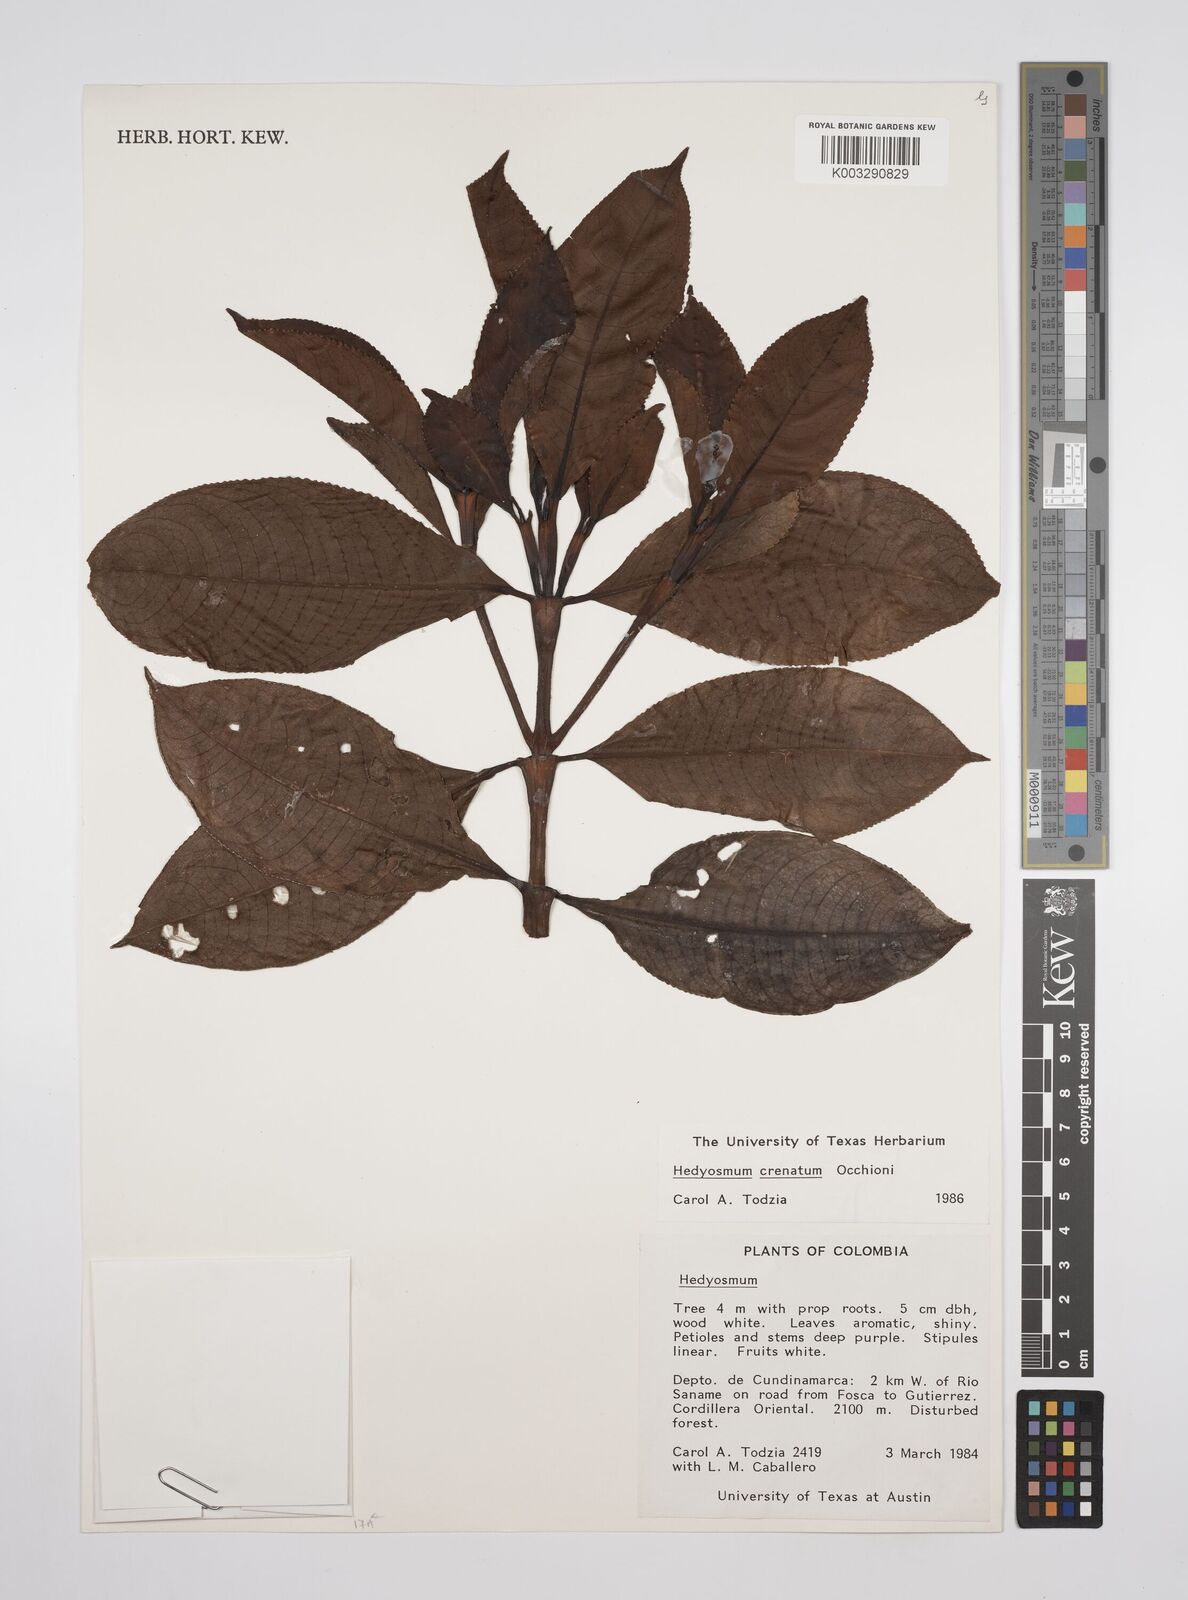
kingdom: Plantae
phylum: Tracheophyta
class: Magnoliopsida
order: Chloranthales
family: Chloranthaceae
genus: Hedyosmum
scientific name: Hedyosmum crenatum
